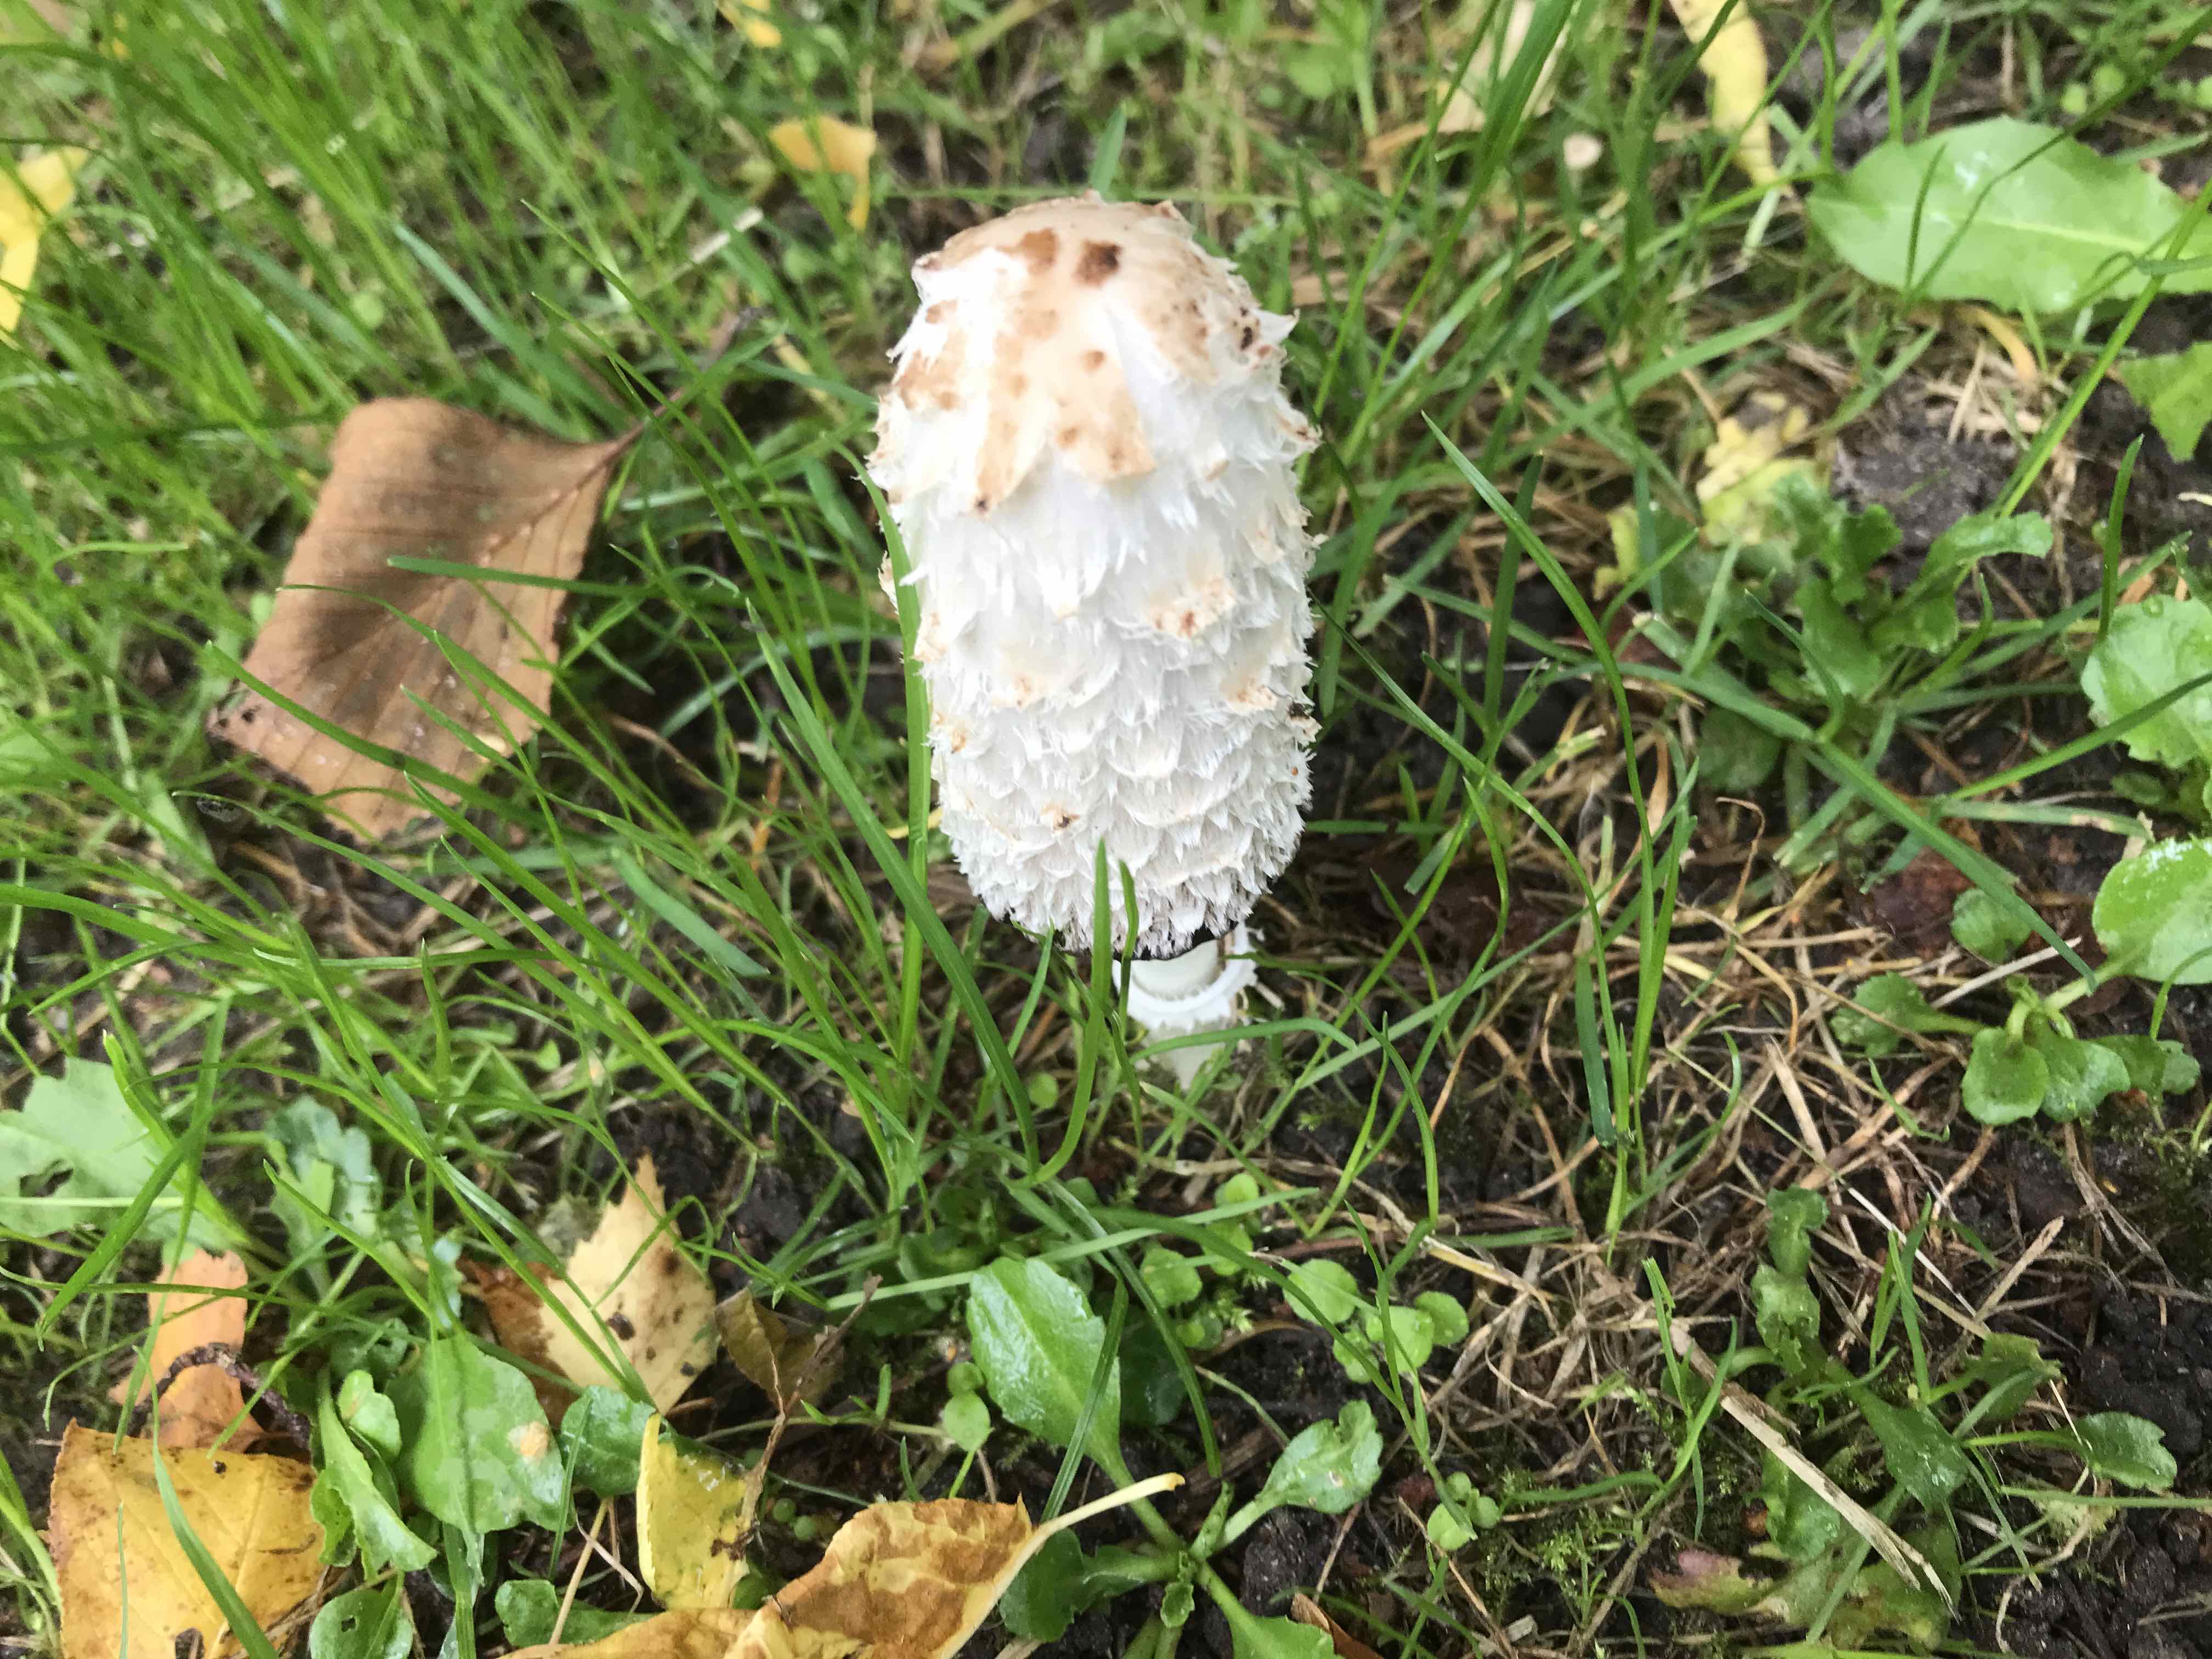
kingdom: Fungi
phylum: Basidiomycota
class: Agaricomycetes
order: Agaricales
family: Agaricaceae
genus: Coprinus
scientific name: Coprinus comatus
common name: stor parykhat
